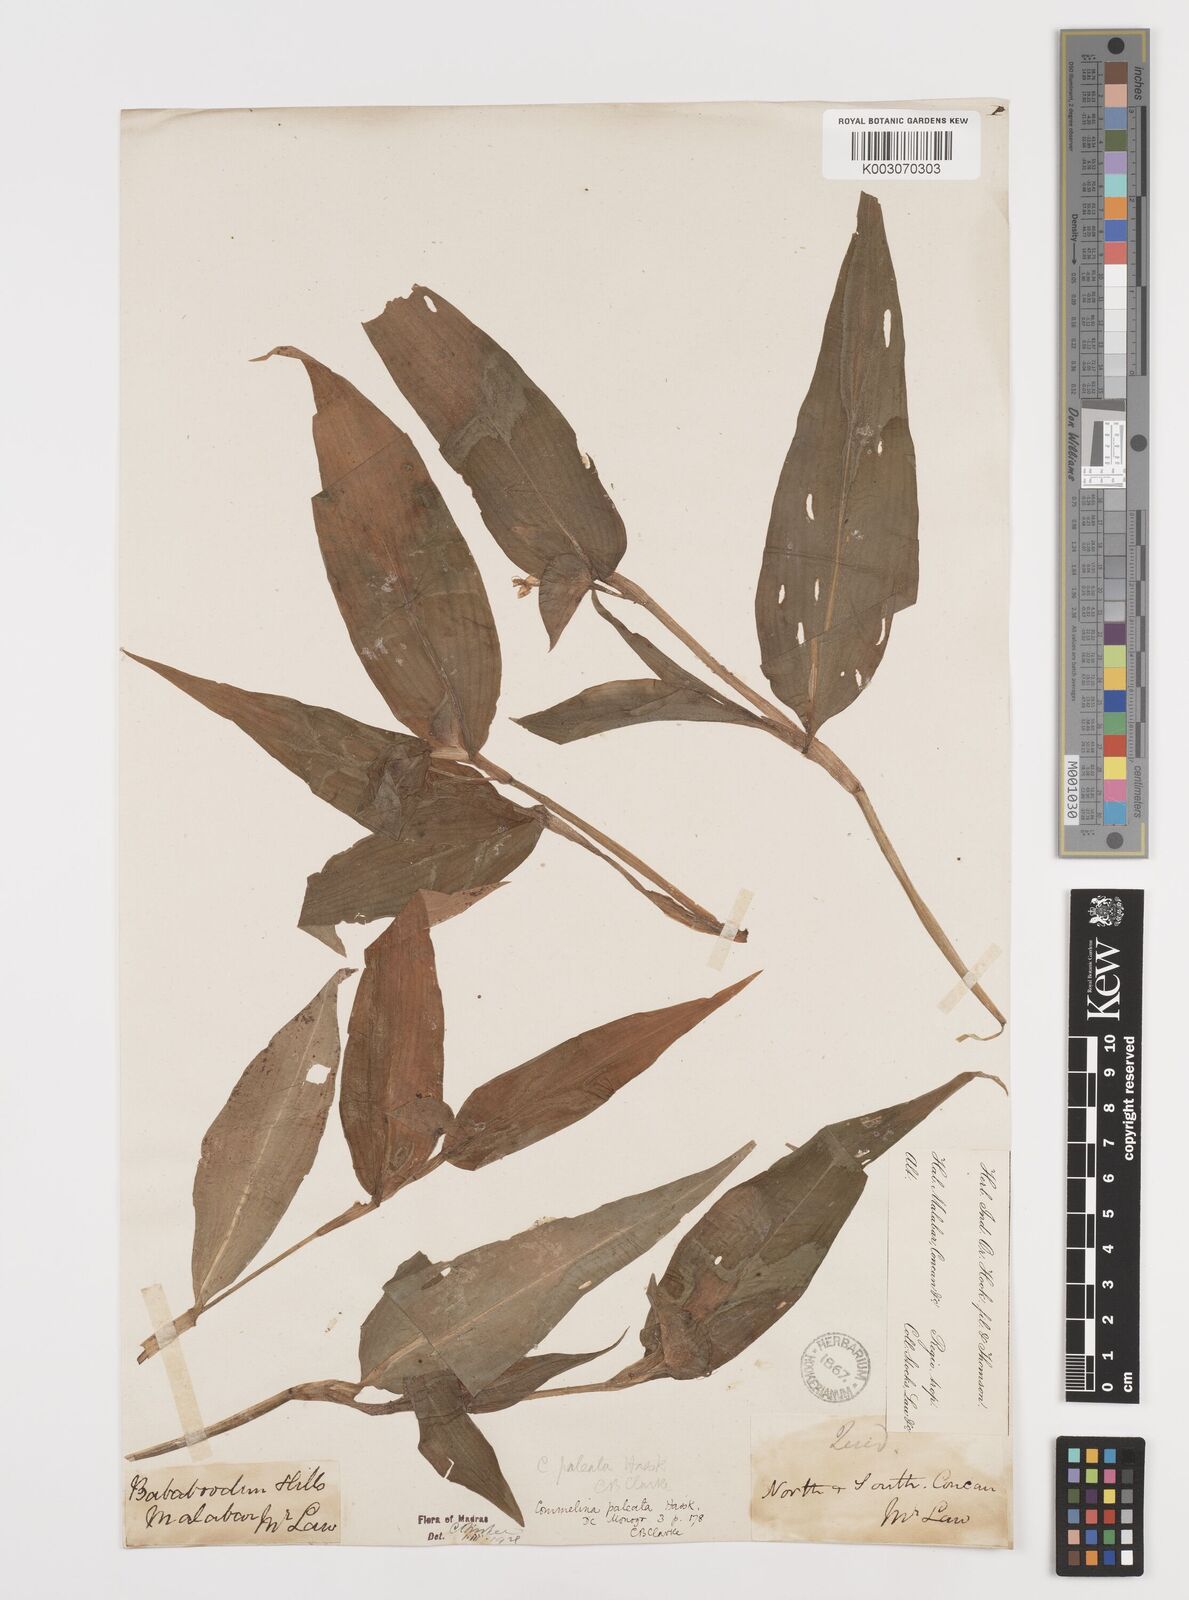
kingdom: Plantae
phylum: Tracheophyta
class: Liliopsida
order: Commelinales
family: Commelinaceae
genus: Commelina
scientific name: Commelina paleata
